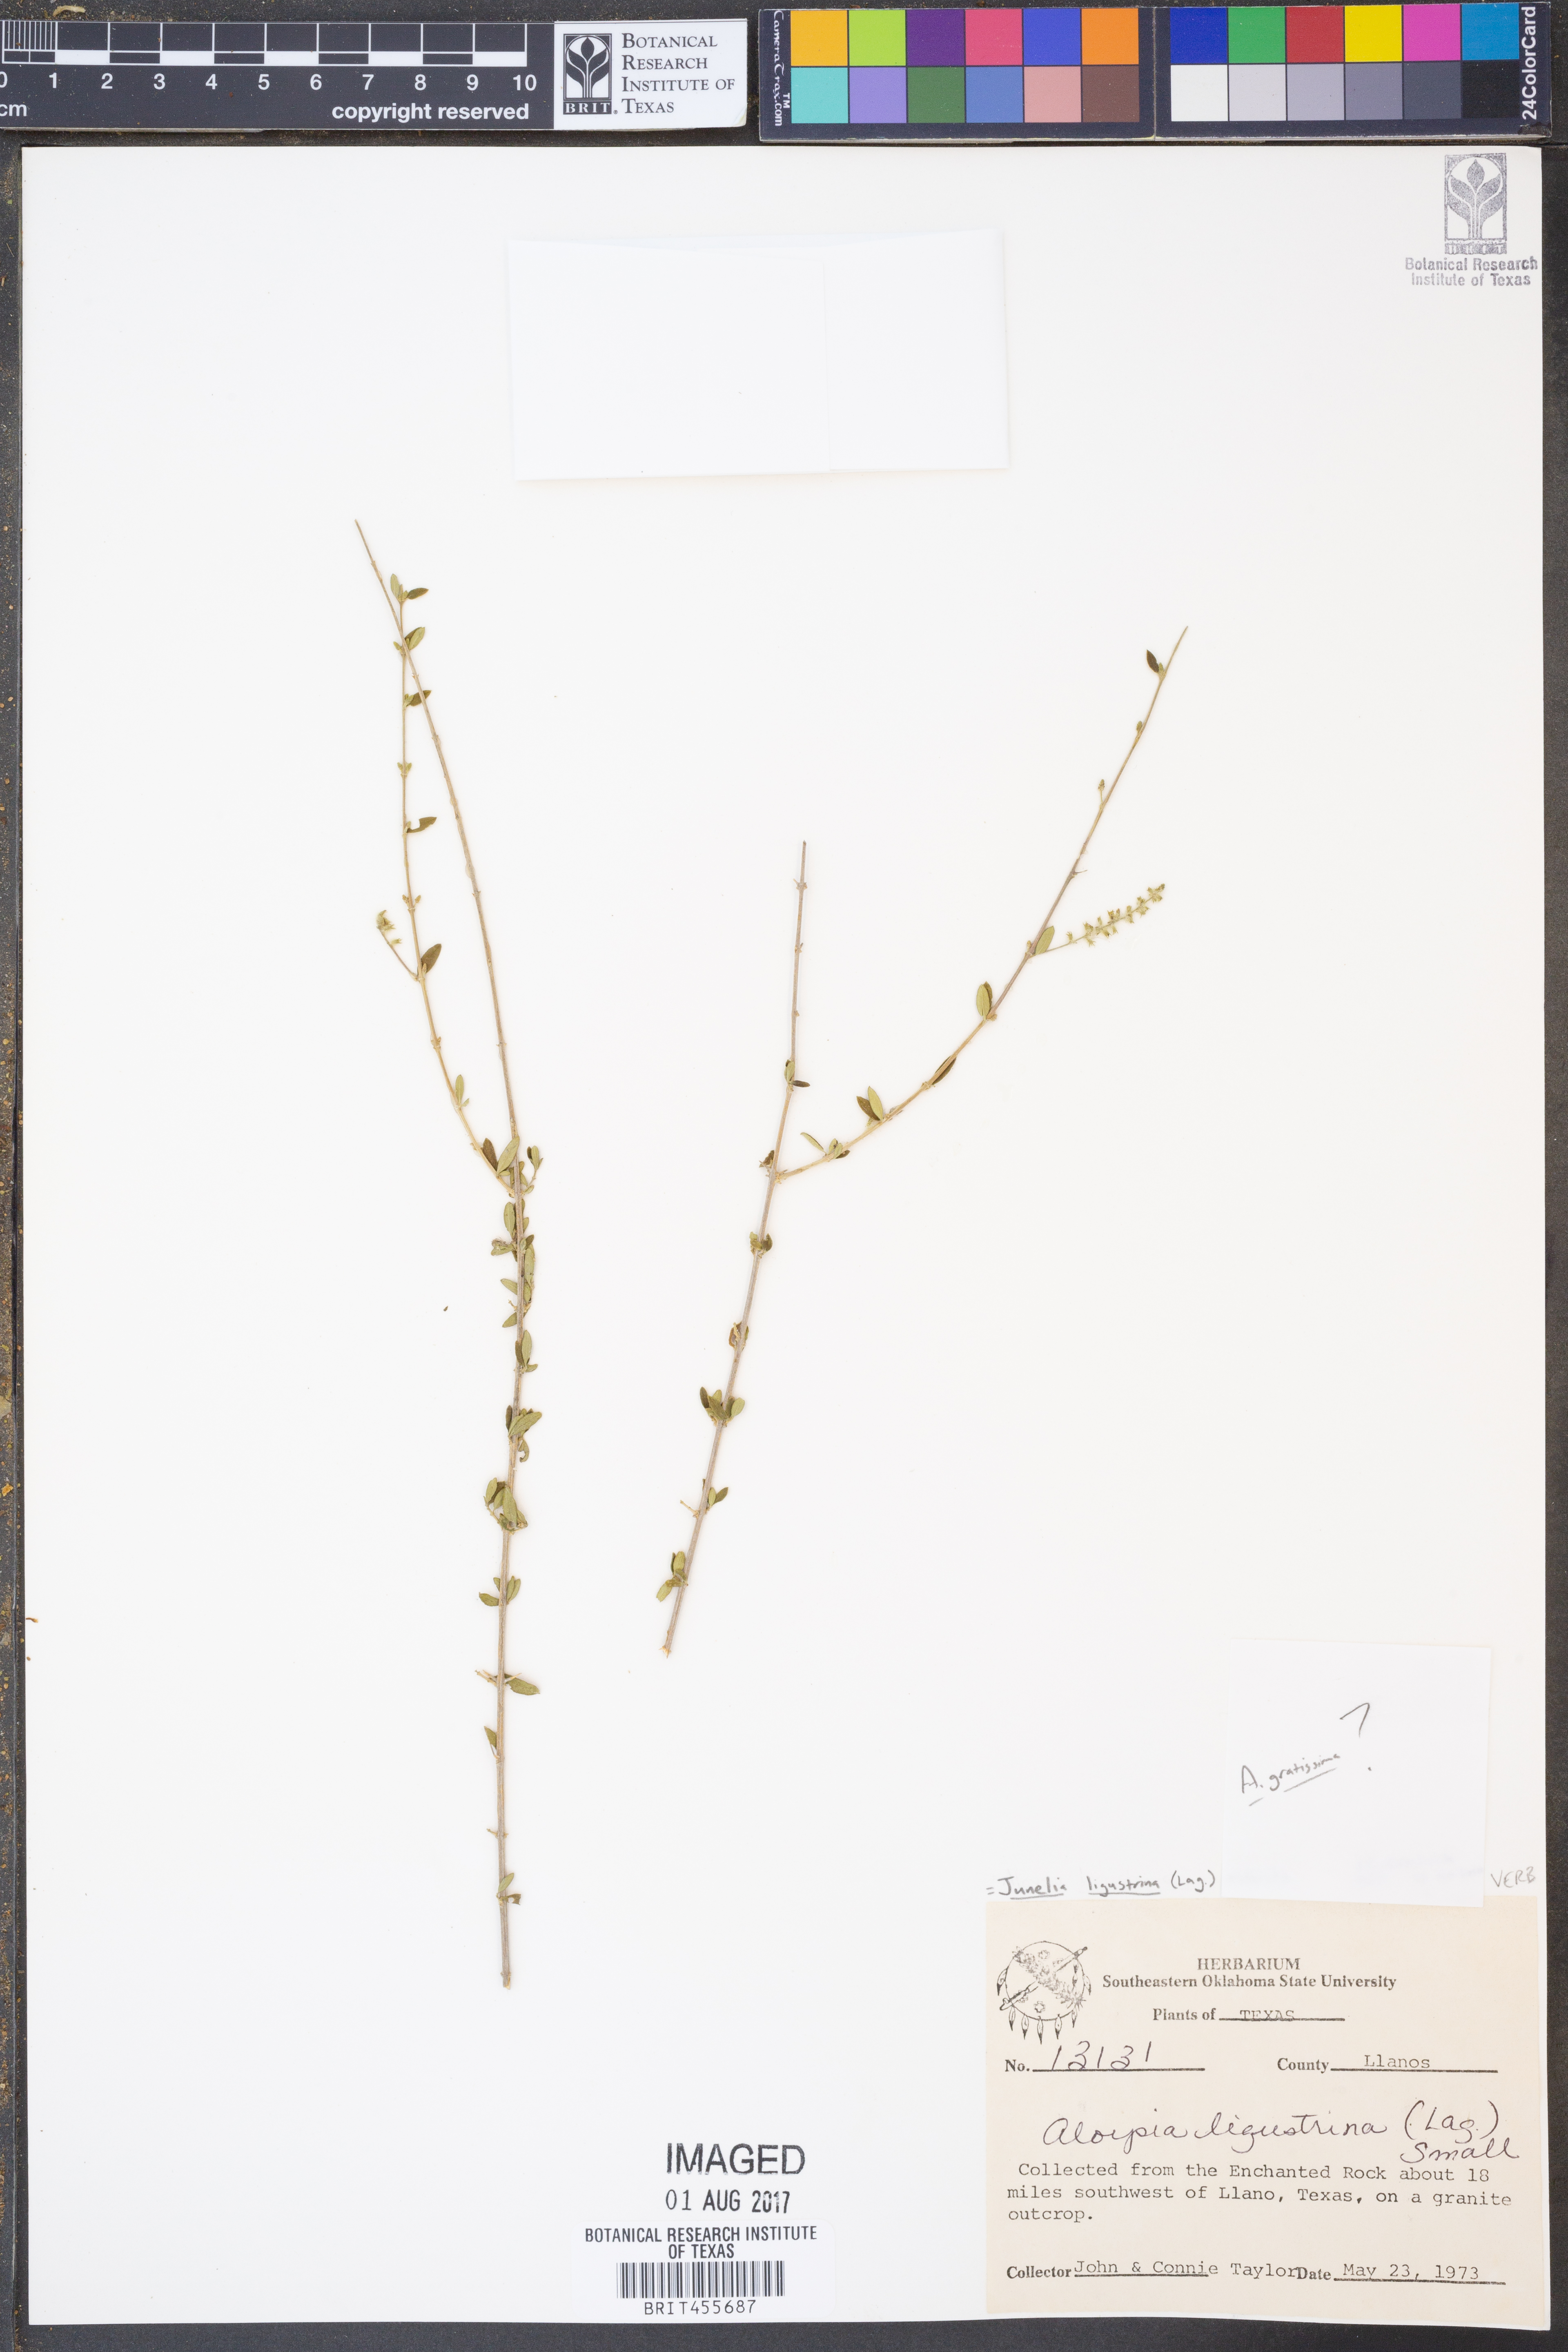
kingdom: Plantae
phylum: Tracheophyta
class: Magnoliopsida
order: Lamiales
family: Verbenaceae
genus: Mulguraea
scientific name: Mulguraea ligustrina
